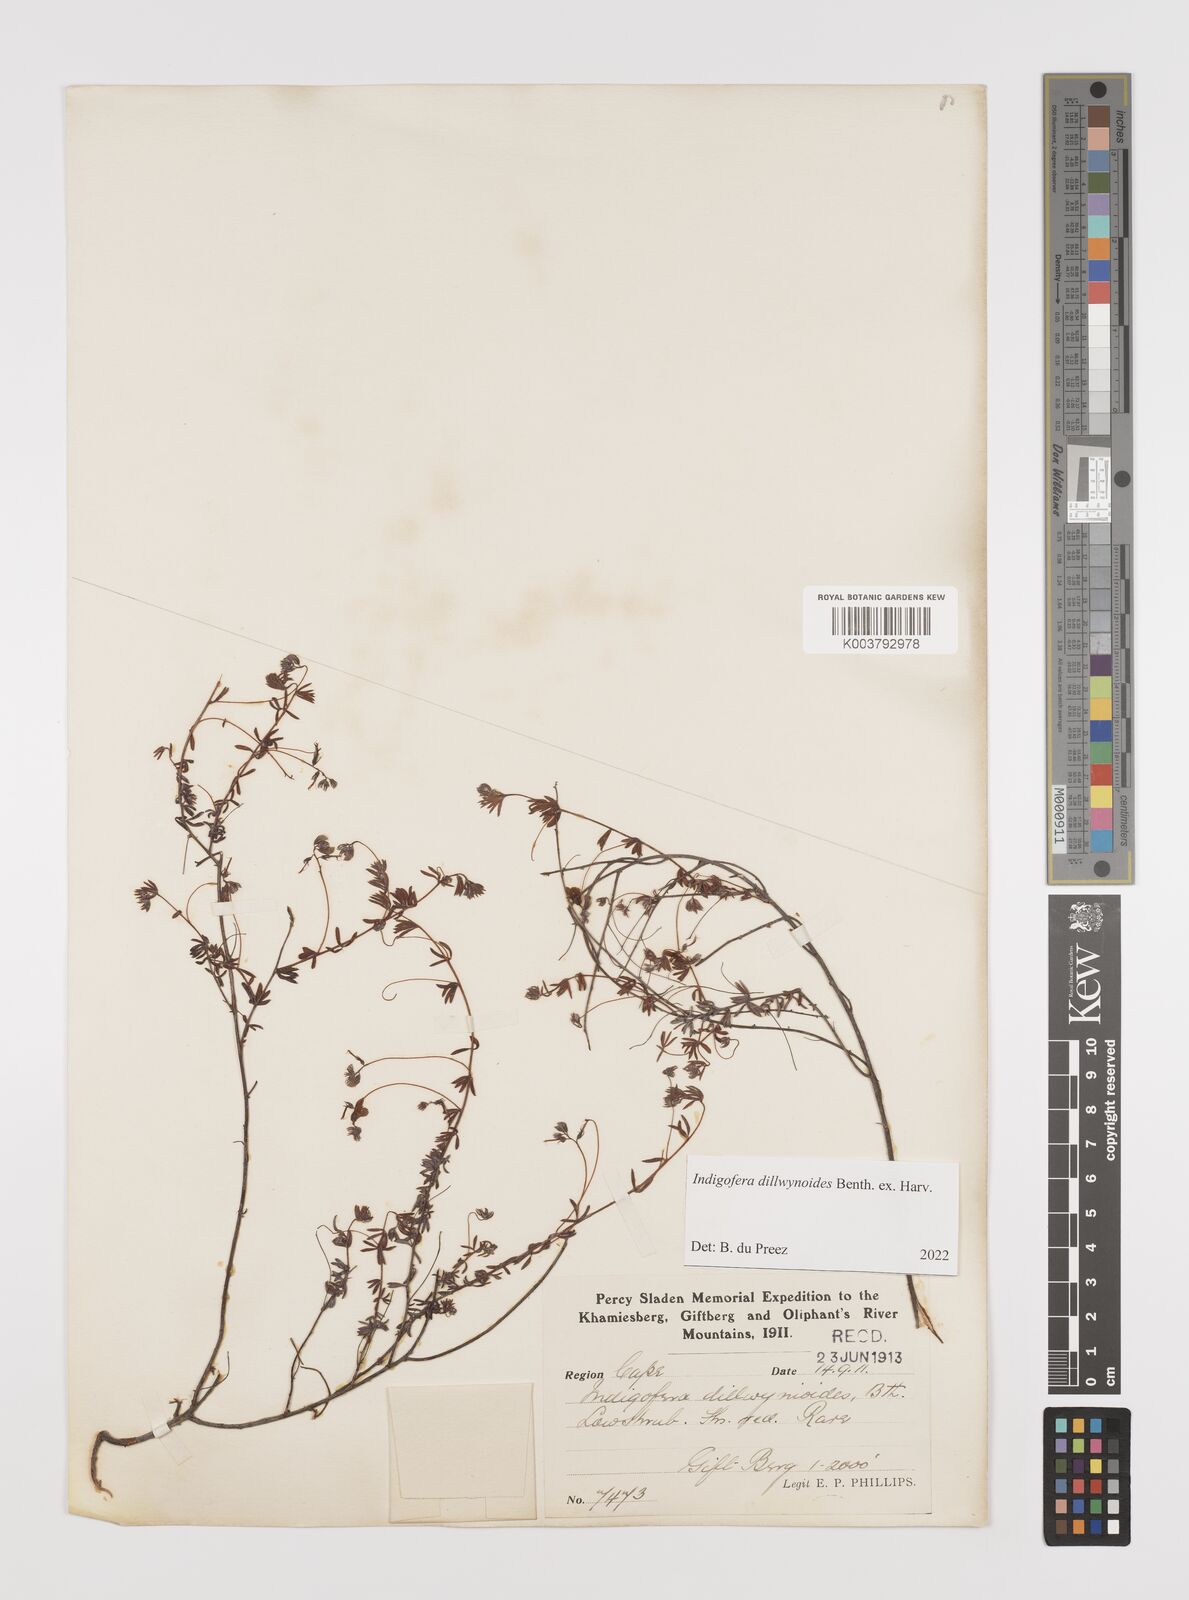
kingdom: Plantae
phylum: Tracheophyta
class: Magnoliopsida
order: Fabales
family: Fabaceae
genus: Indigofera
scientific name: Indigofera dillwynioides
